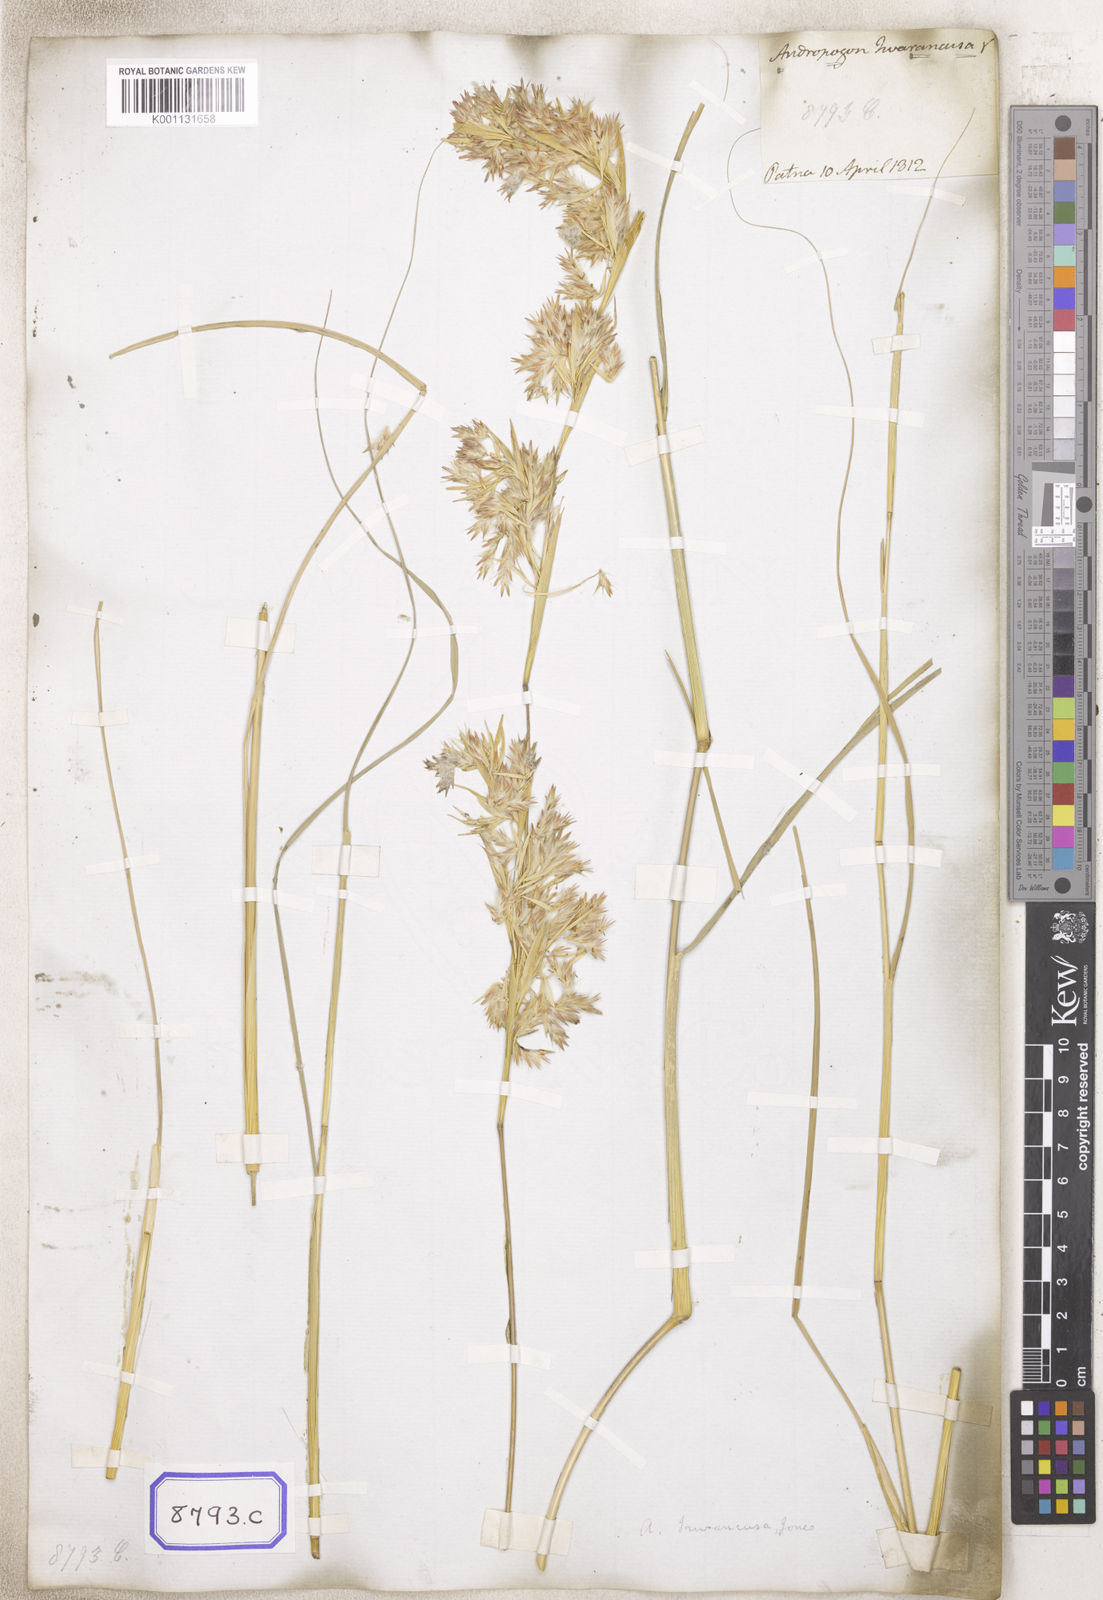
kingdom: Plantae
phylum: Tracheophyta
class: Liliopsida
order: Poales
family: Poaceae
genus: Cymbopogon
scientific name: Cymbopogon iwarancusa
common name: Iwarancusa grass
